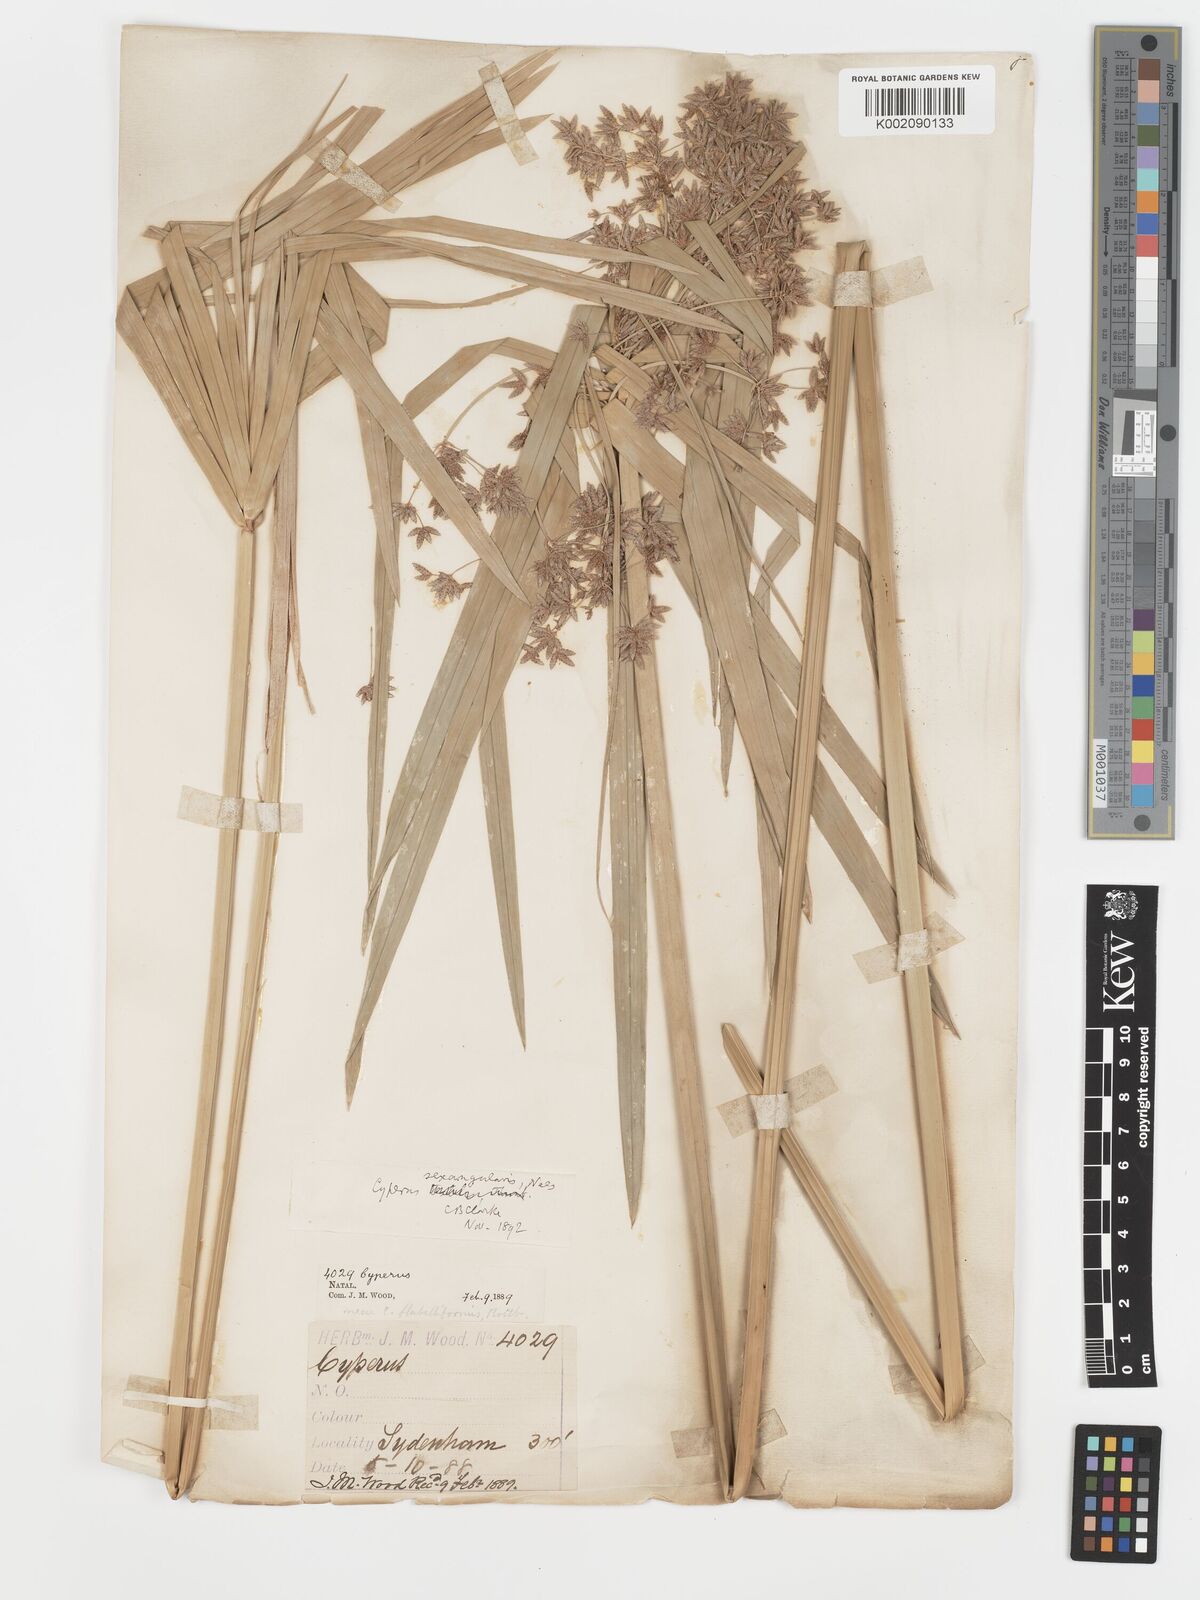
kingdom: Plantae
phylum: Tracheophyta
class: Liliopsida
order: Poales
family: Cyperaceae
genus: Cyperus
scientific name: Cyperus sexangularis
